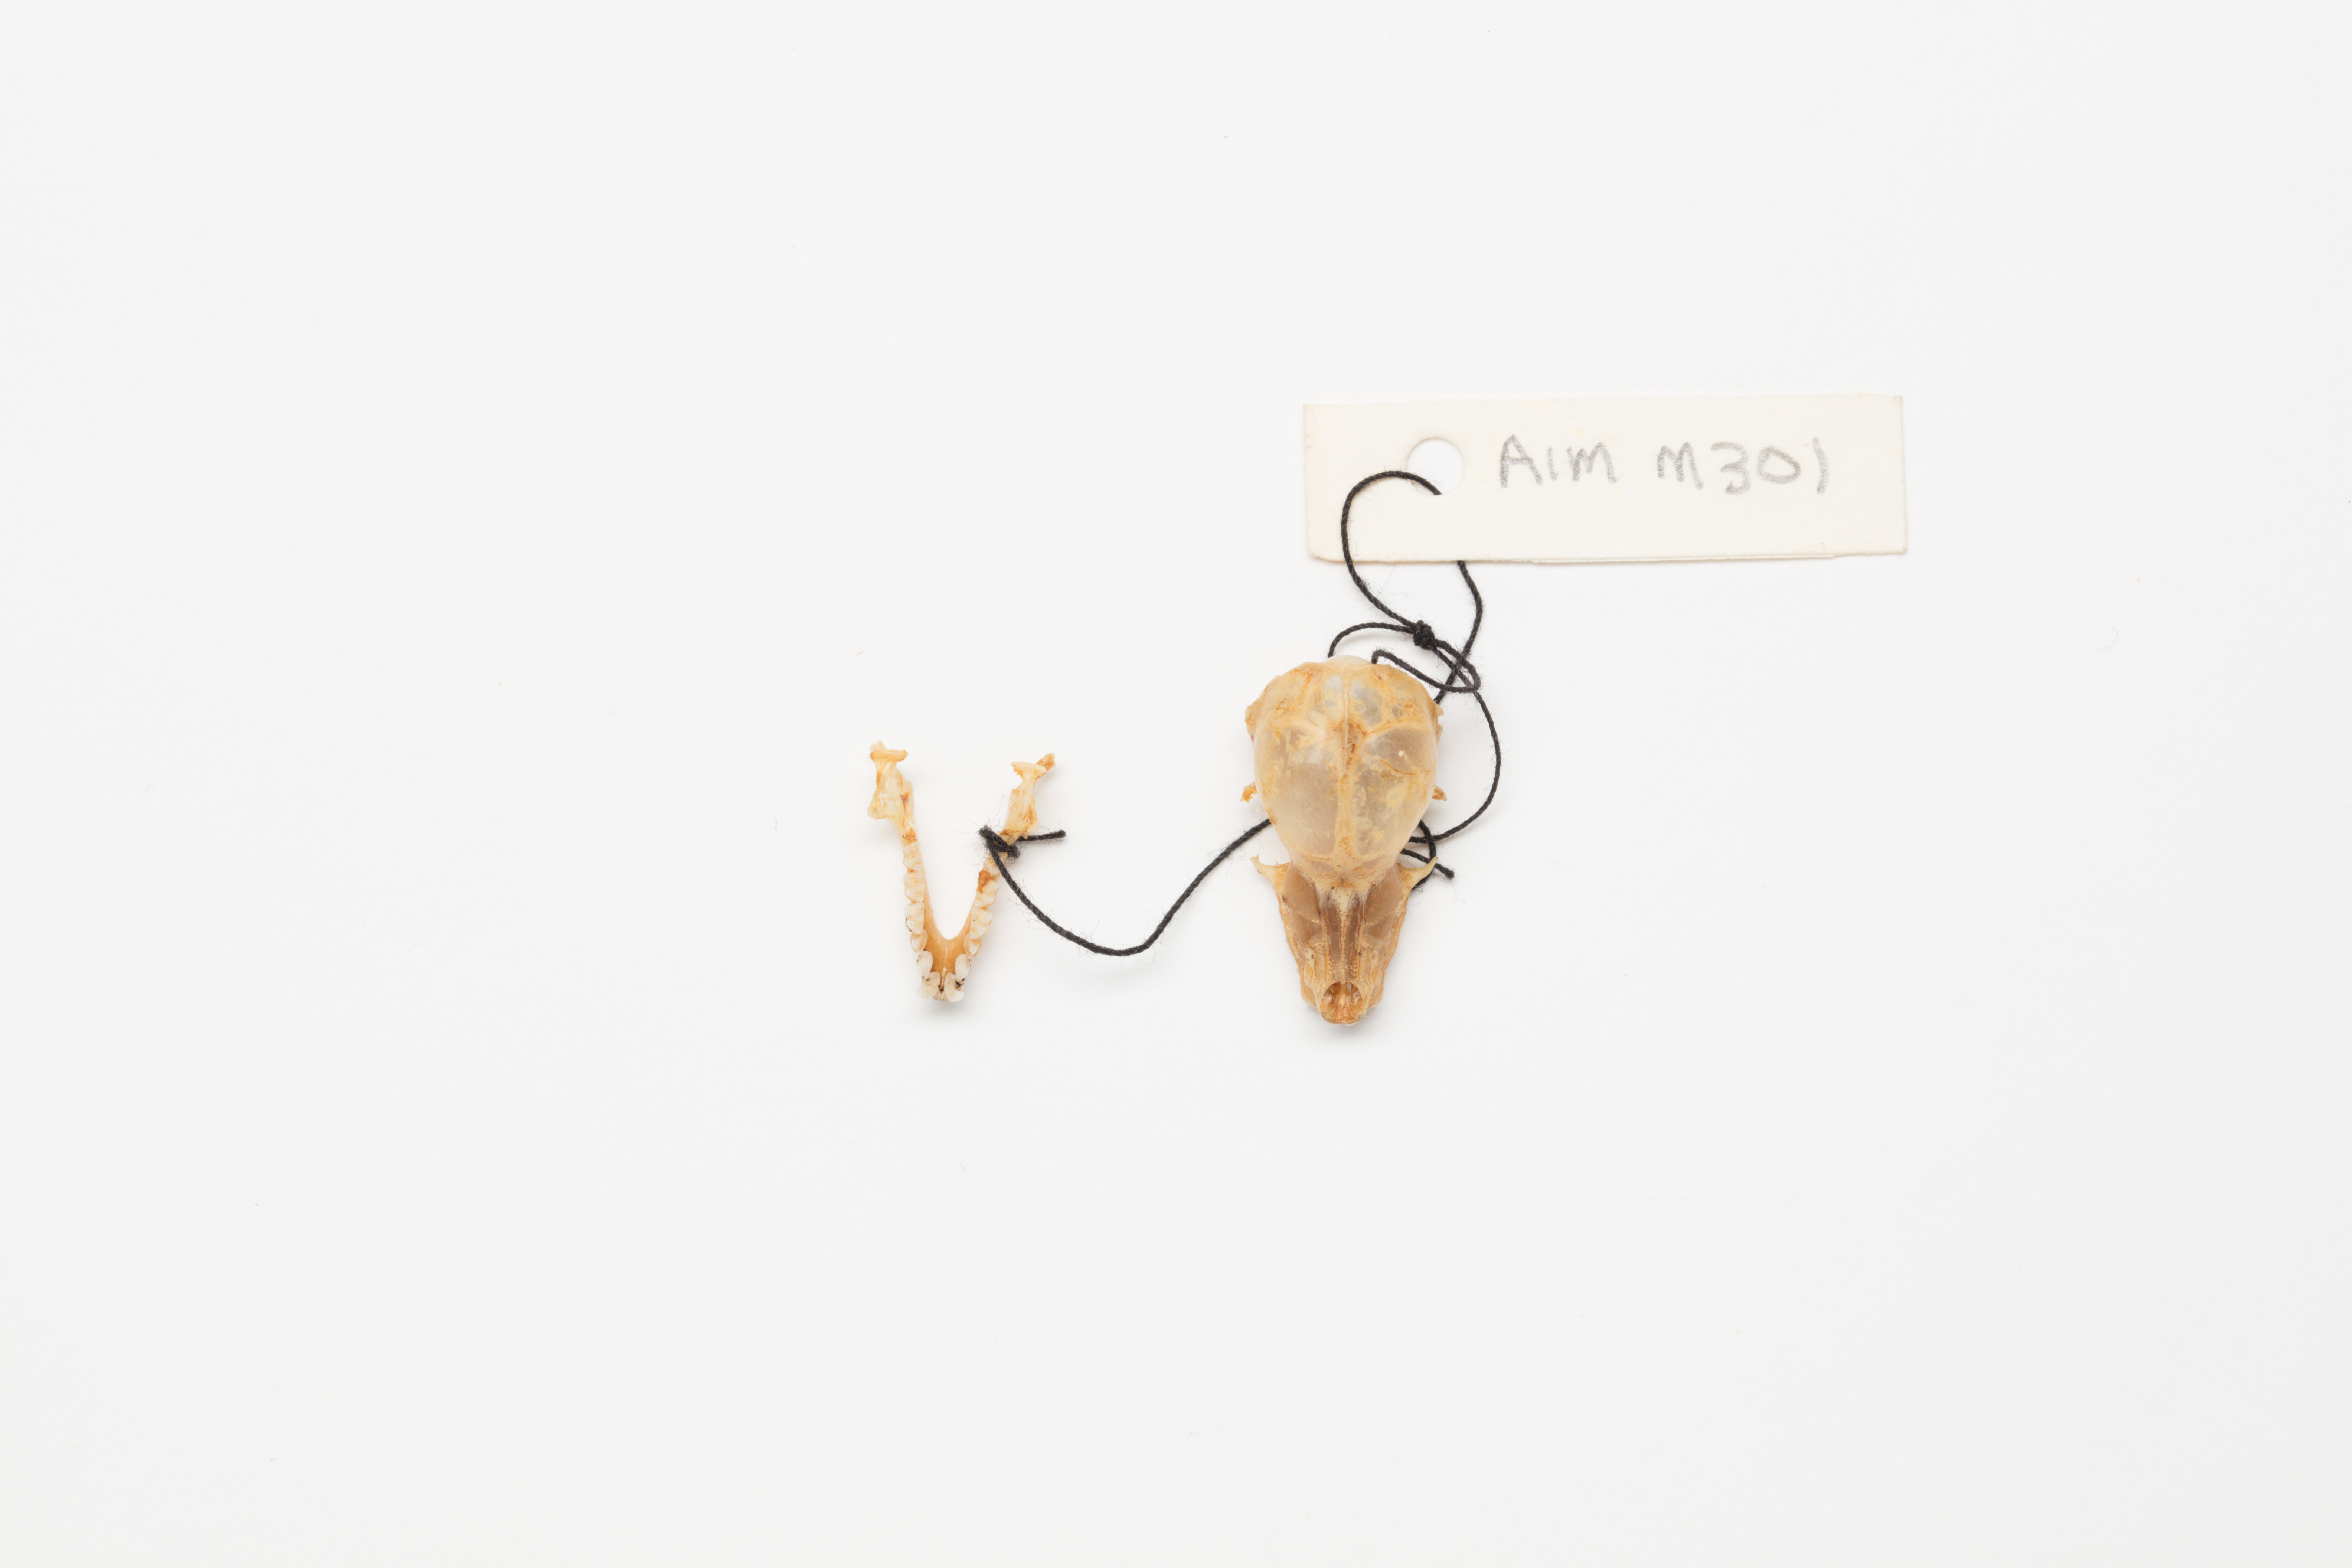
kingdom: Animalia
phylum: Chordata
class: Mammalia
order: Chiroptera
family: Mystacinidae
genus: Mystacina
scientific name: Mystacina tuberculata
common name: New zealand lesser short-tailed bat
